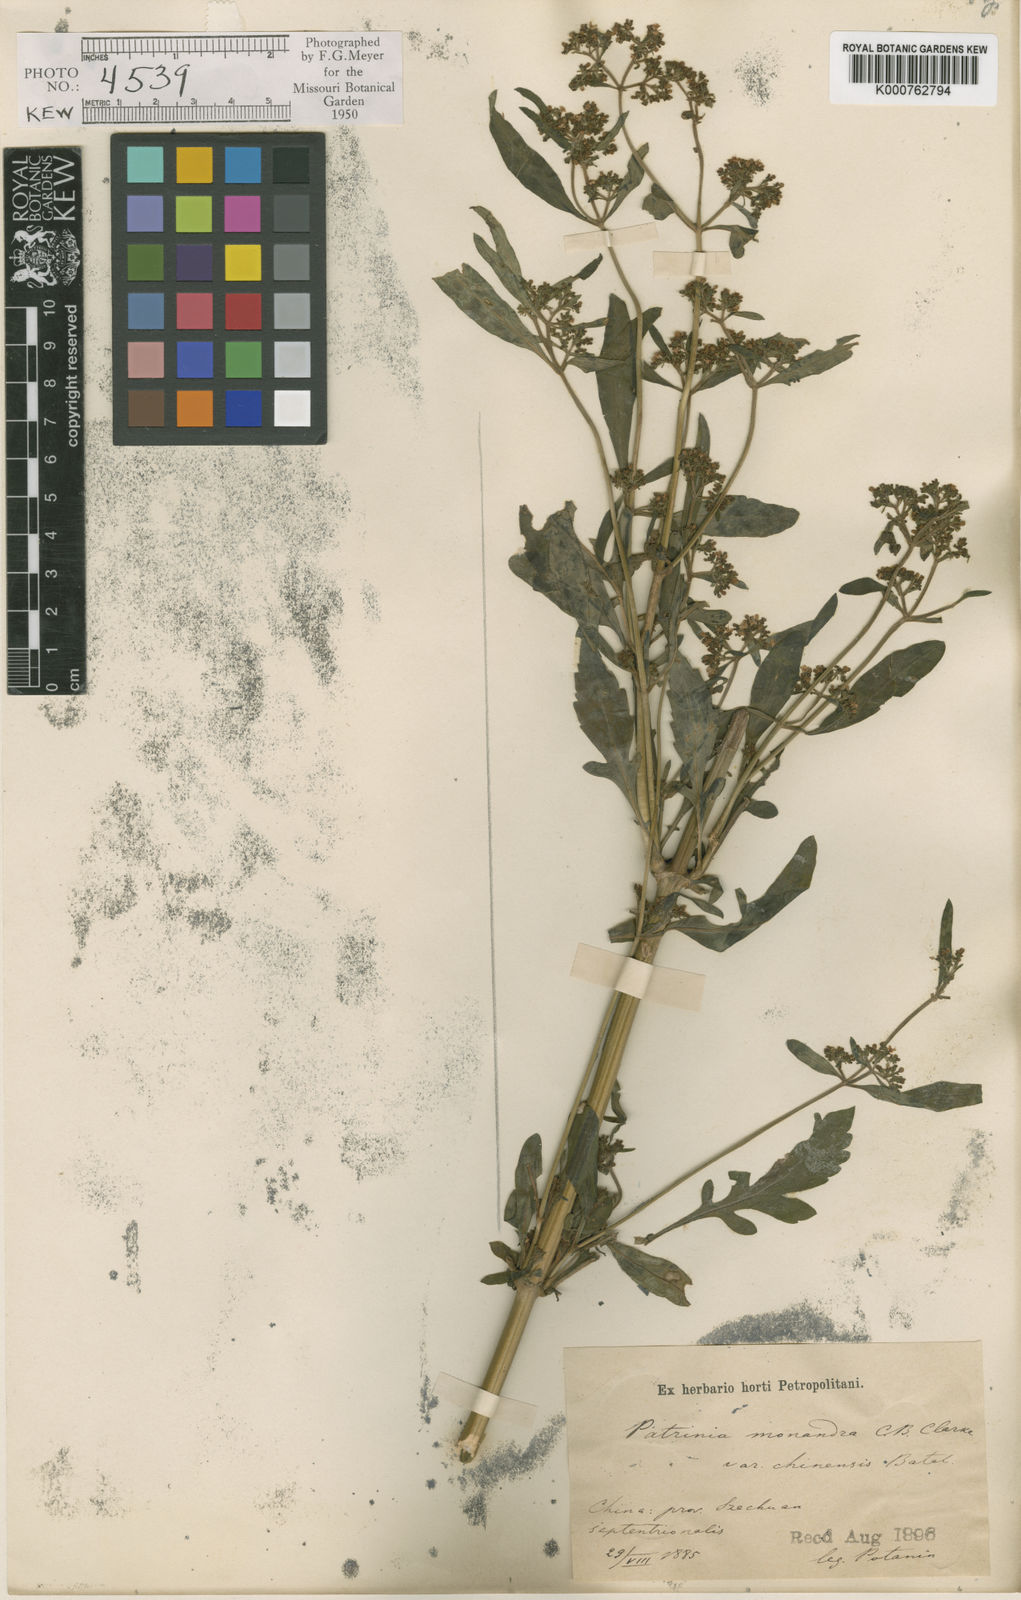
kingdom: Plantae
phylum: Tracheophyta
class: Magnoliopsida
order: Dipsacales
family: Caprifoliaceae
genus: Patrinia
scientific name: Patrinia monandra
